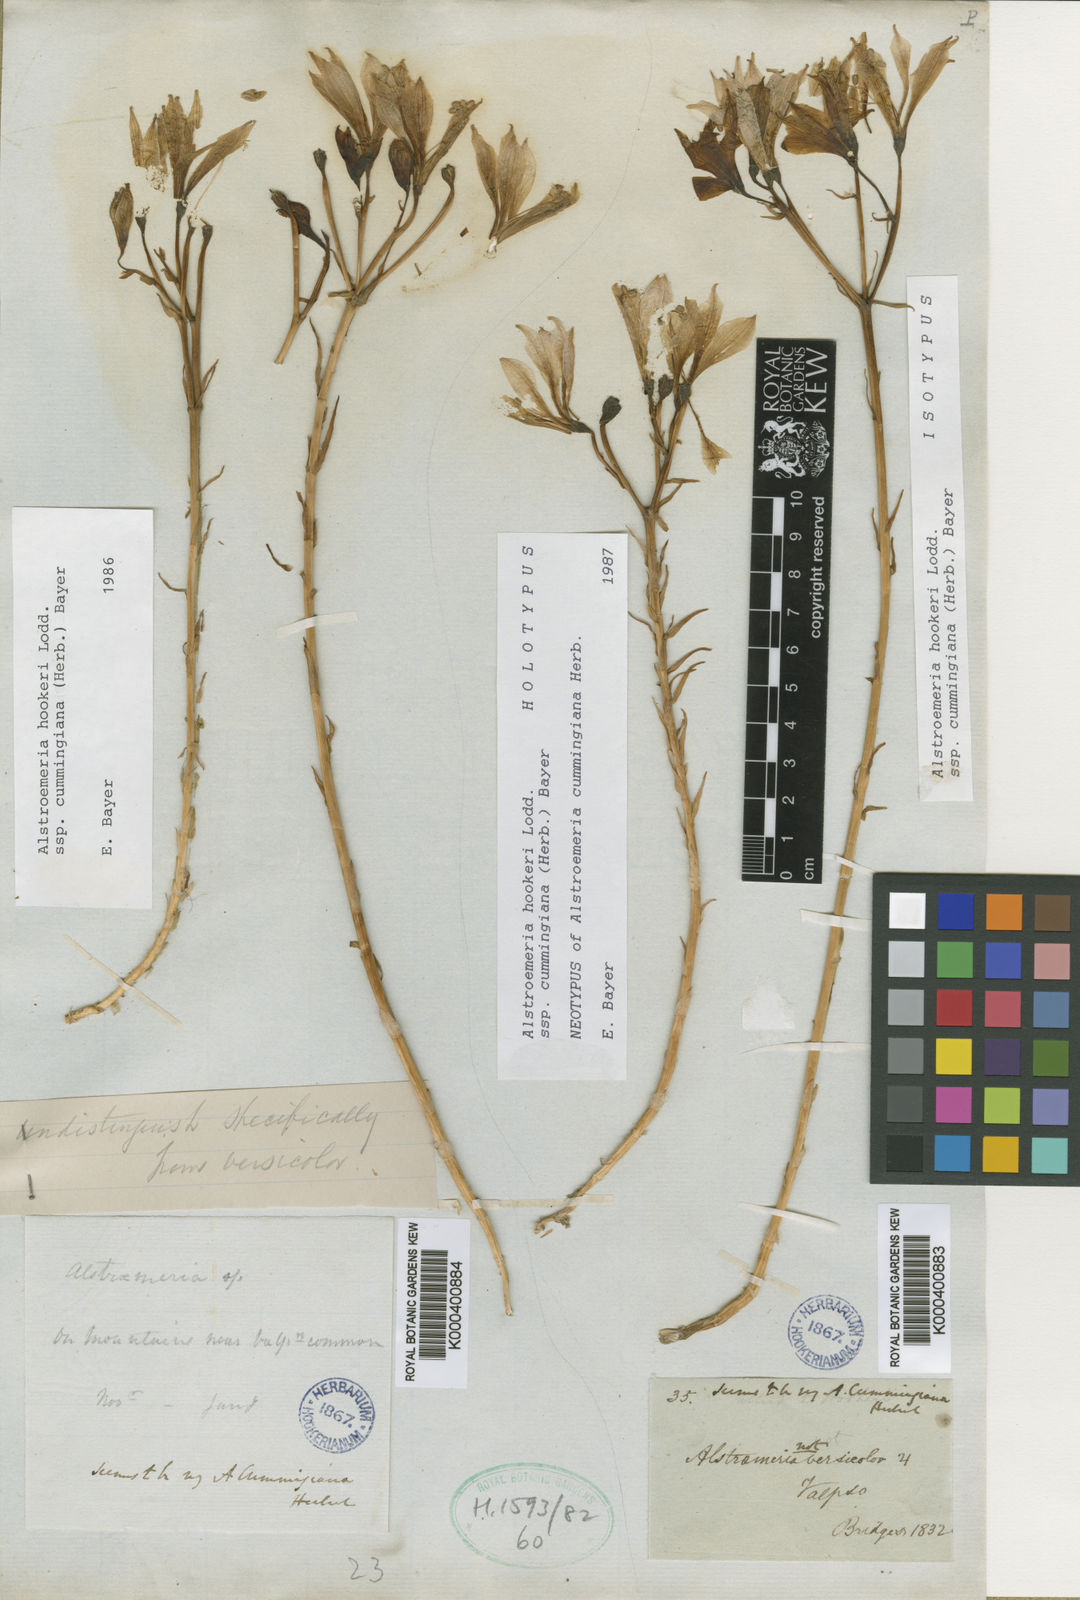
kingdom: Plantae
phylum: Tracheophyta
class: Liliopsida
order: Liliales
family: Alstroemeriaceae
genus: Alstroemeria
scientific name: Alstroemeria hookeri
